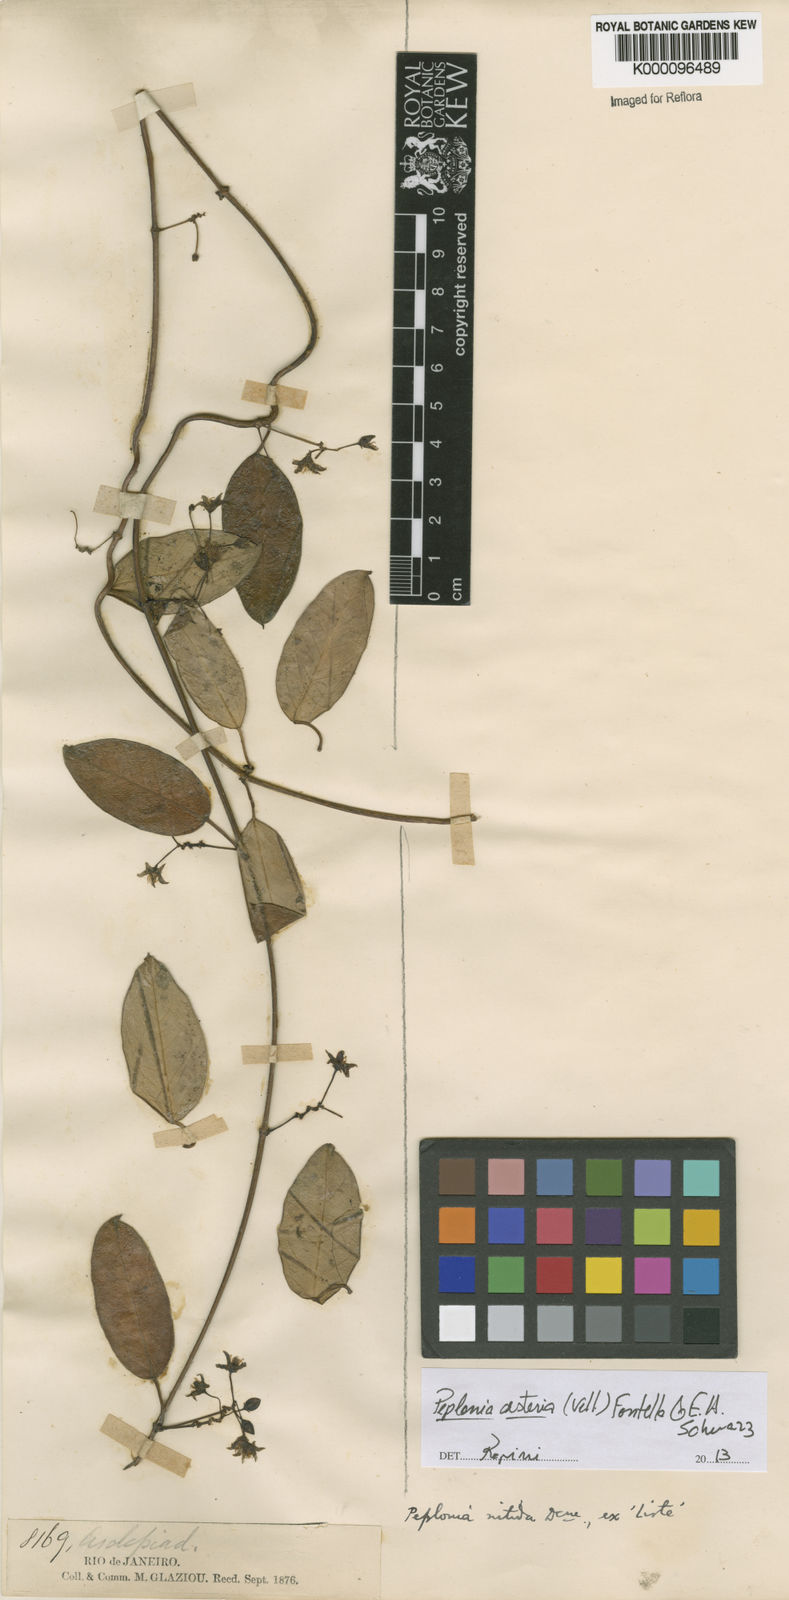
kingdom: Plantae
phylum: Tracheophyta
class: Magnoliopsida
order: Gentianales
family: Apocynaceae
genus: Peplonia
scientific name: Peplonia asteria
